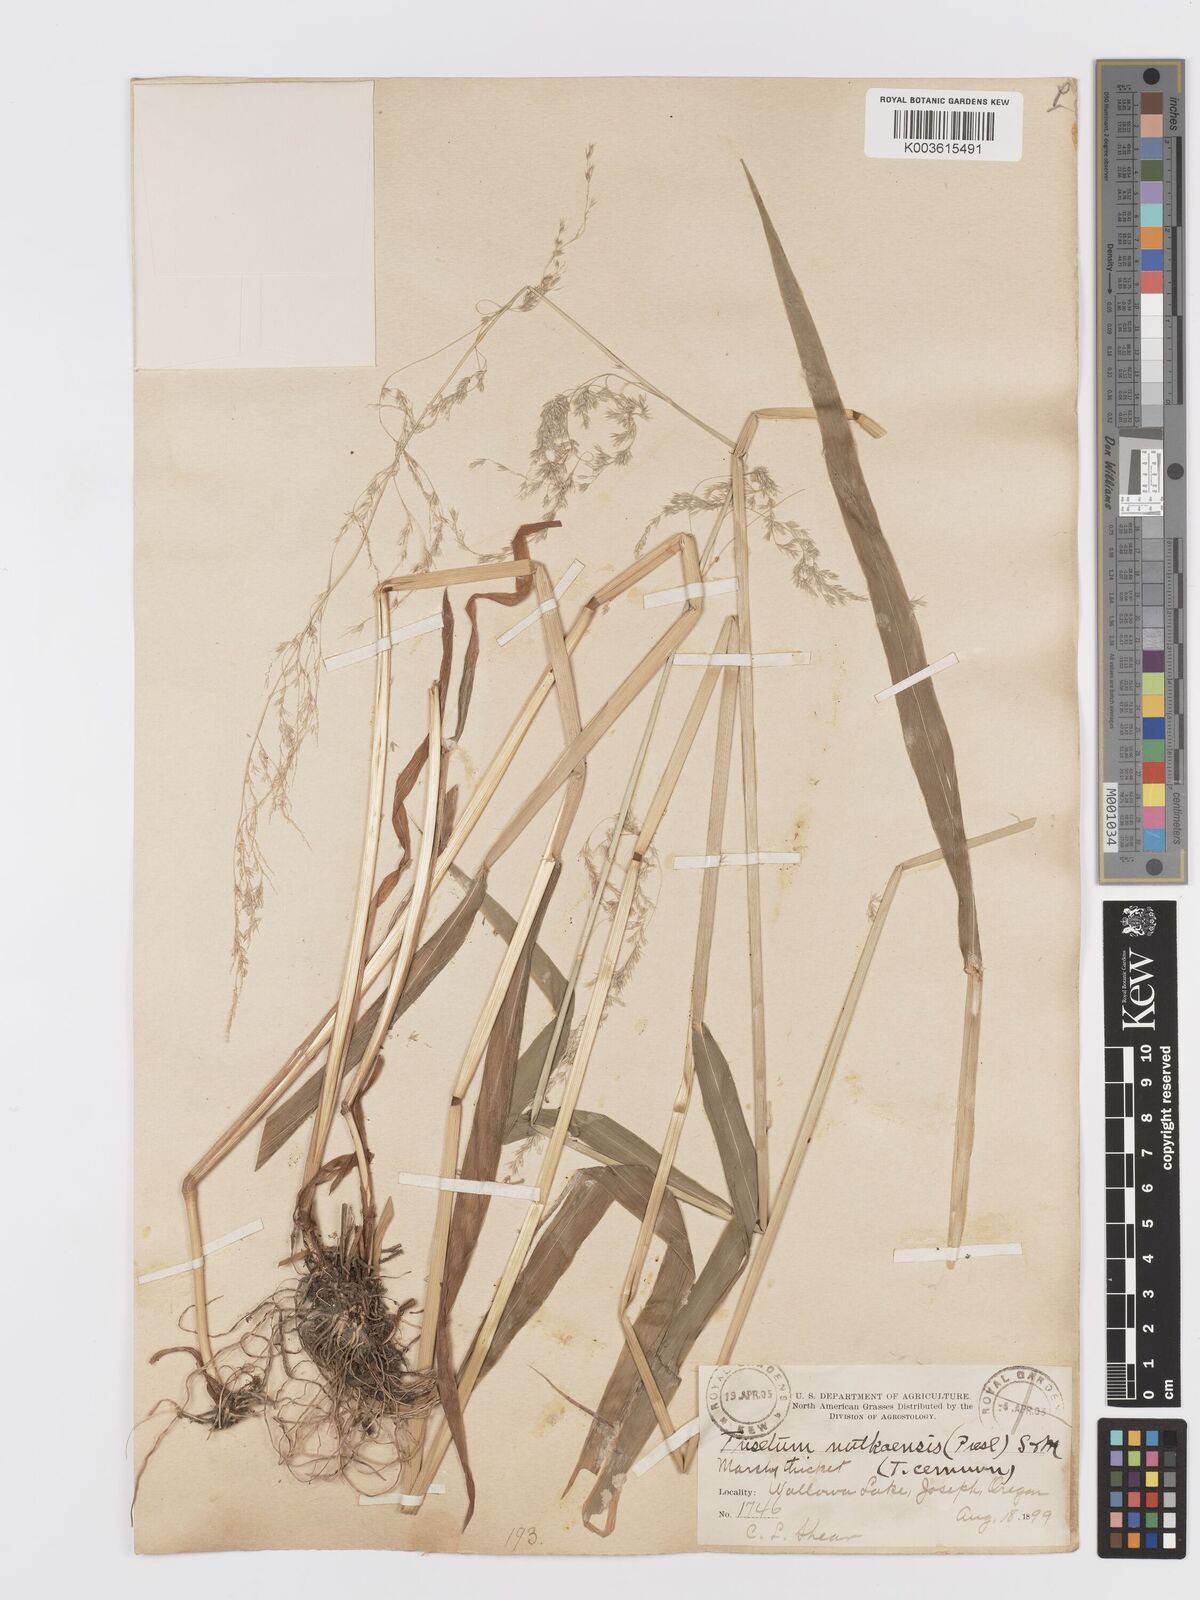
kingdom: Plantae
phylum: Tracheophyta
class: Liliopsida
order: Poales
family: Poaceae
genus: Graphephorum
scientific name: Graphephorum cernuum
